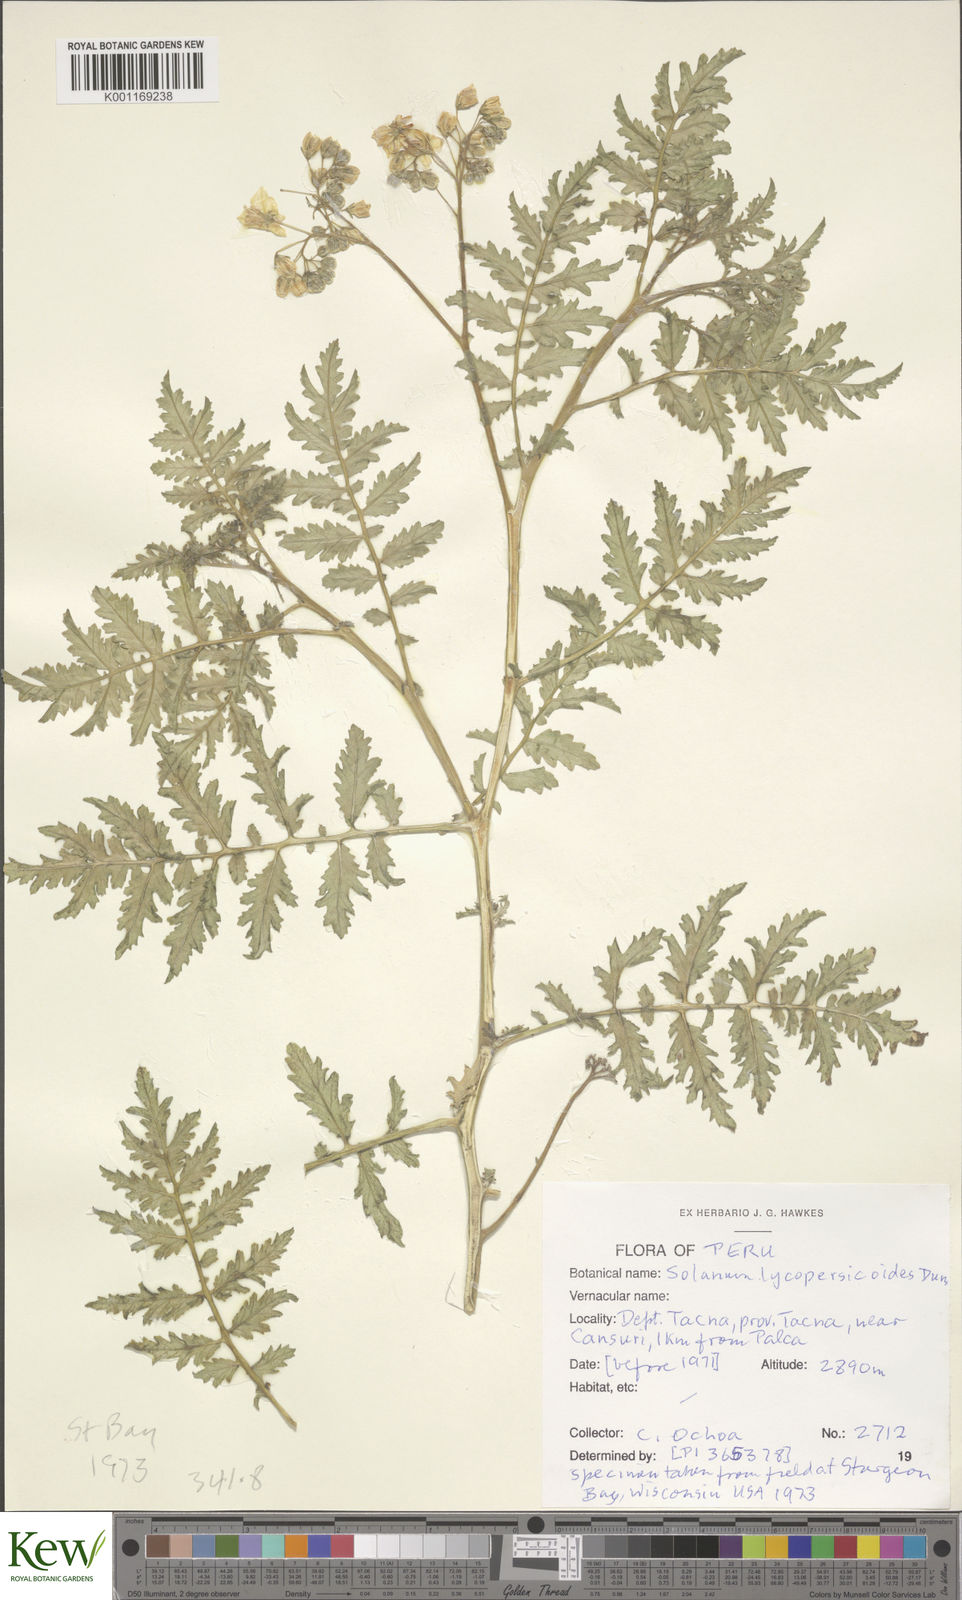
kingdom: Plantae
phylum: Tracheophyta
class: Magnoliopsida
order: Solanales
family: Solanaceae
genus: Solanum
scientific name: Solanum lycopersicoides
